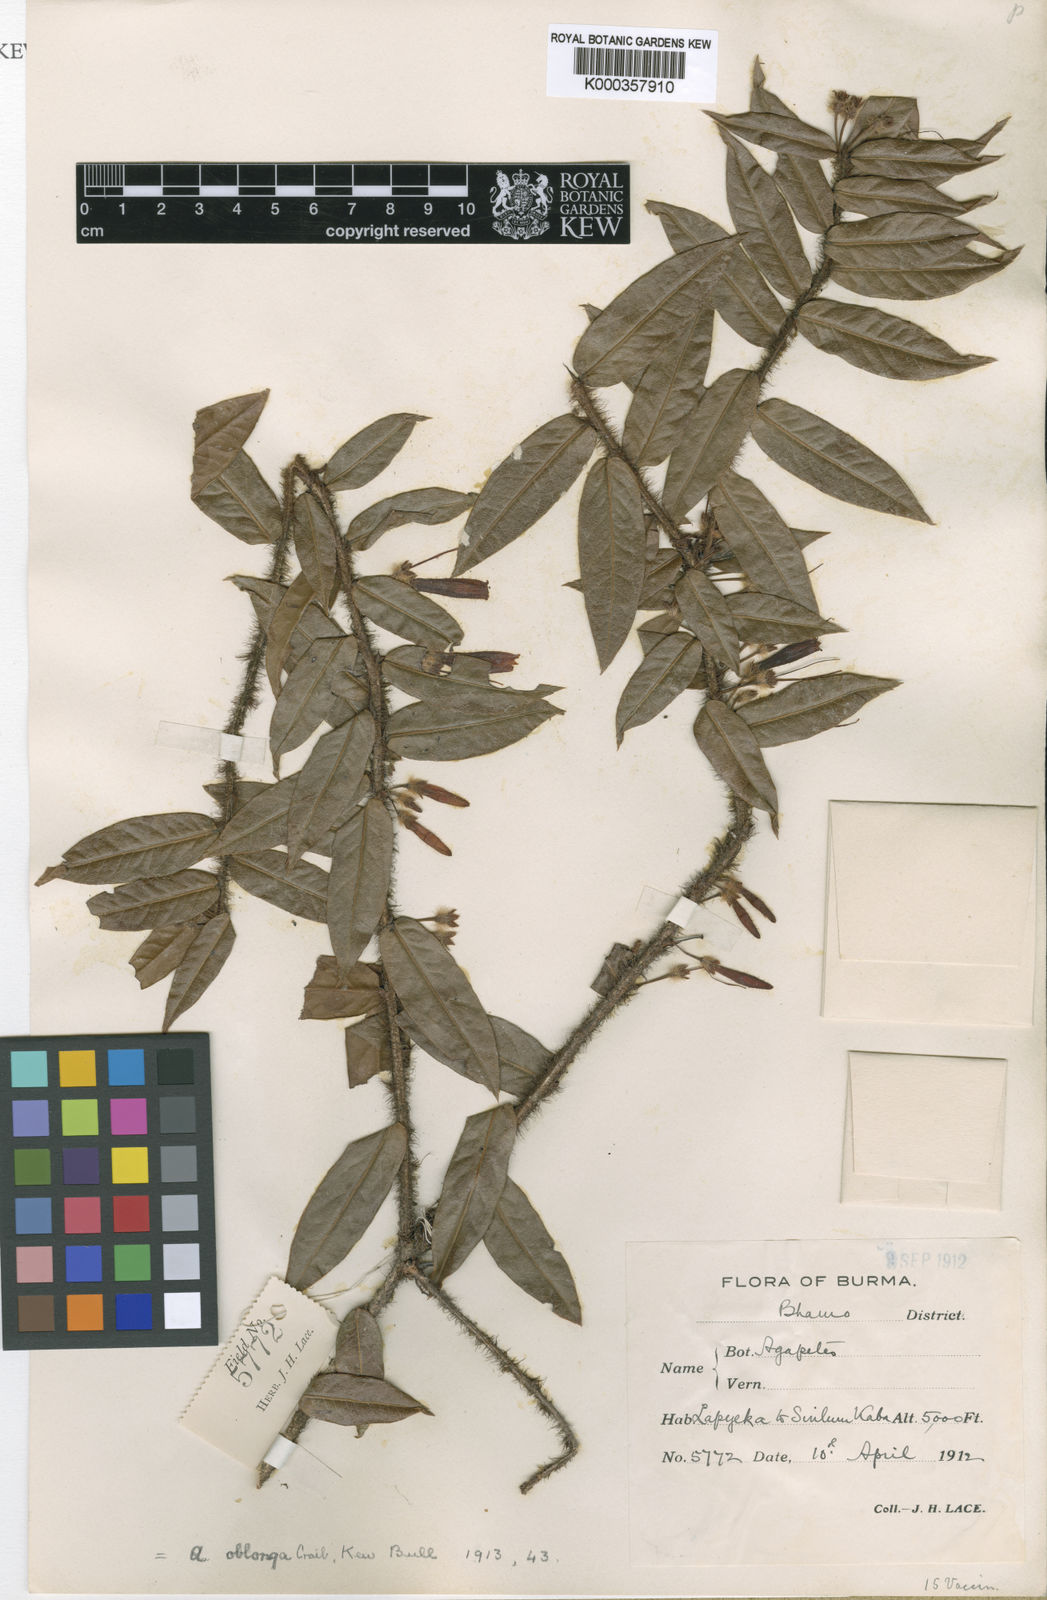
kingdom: Plantae
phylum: Tracheophyta
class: Magnoliopsida
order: Ericales
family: Ericaceae
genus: Agapetes
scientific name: Agapetes oblonga
